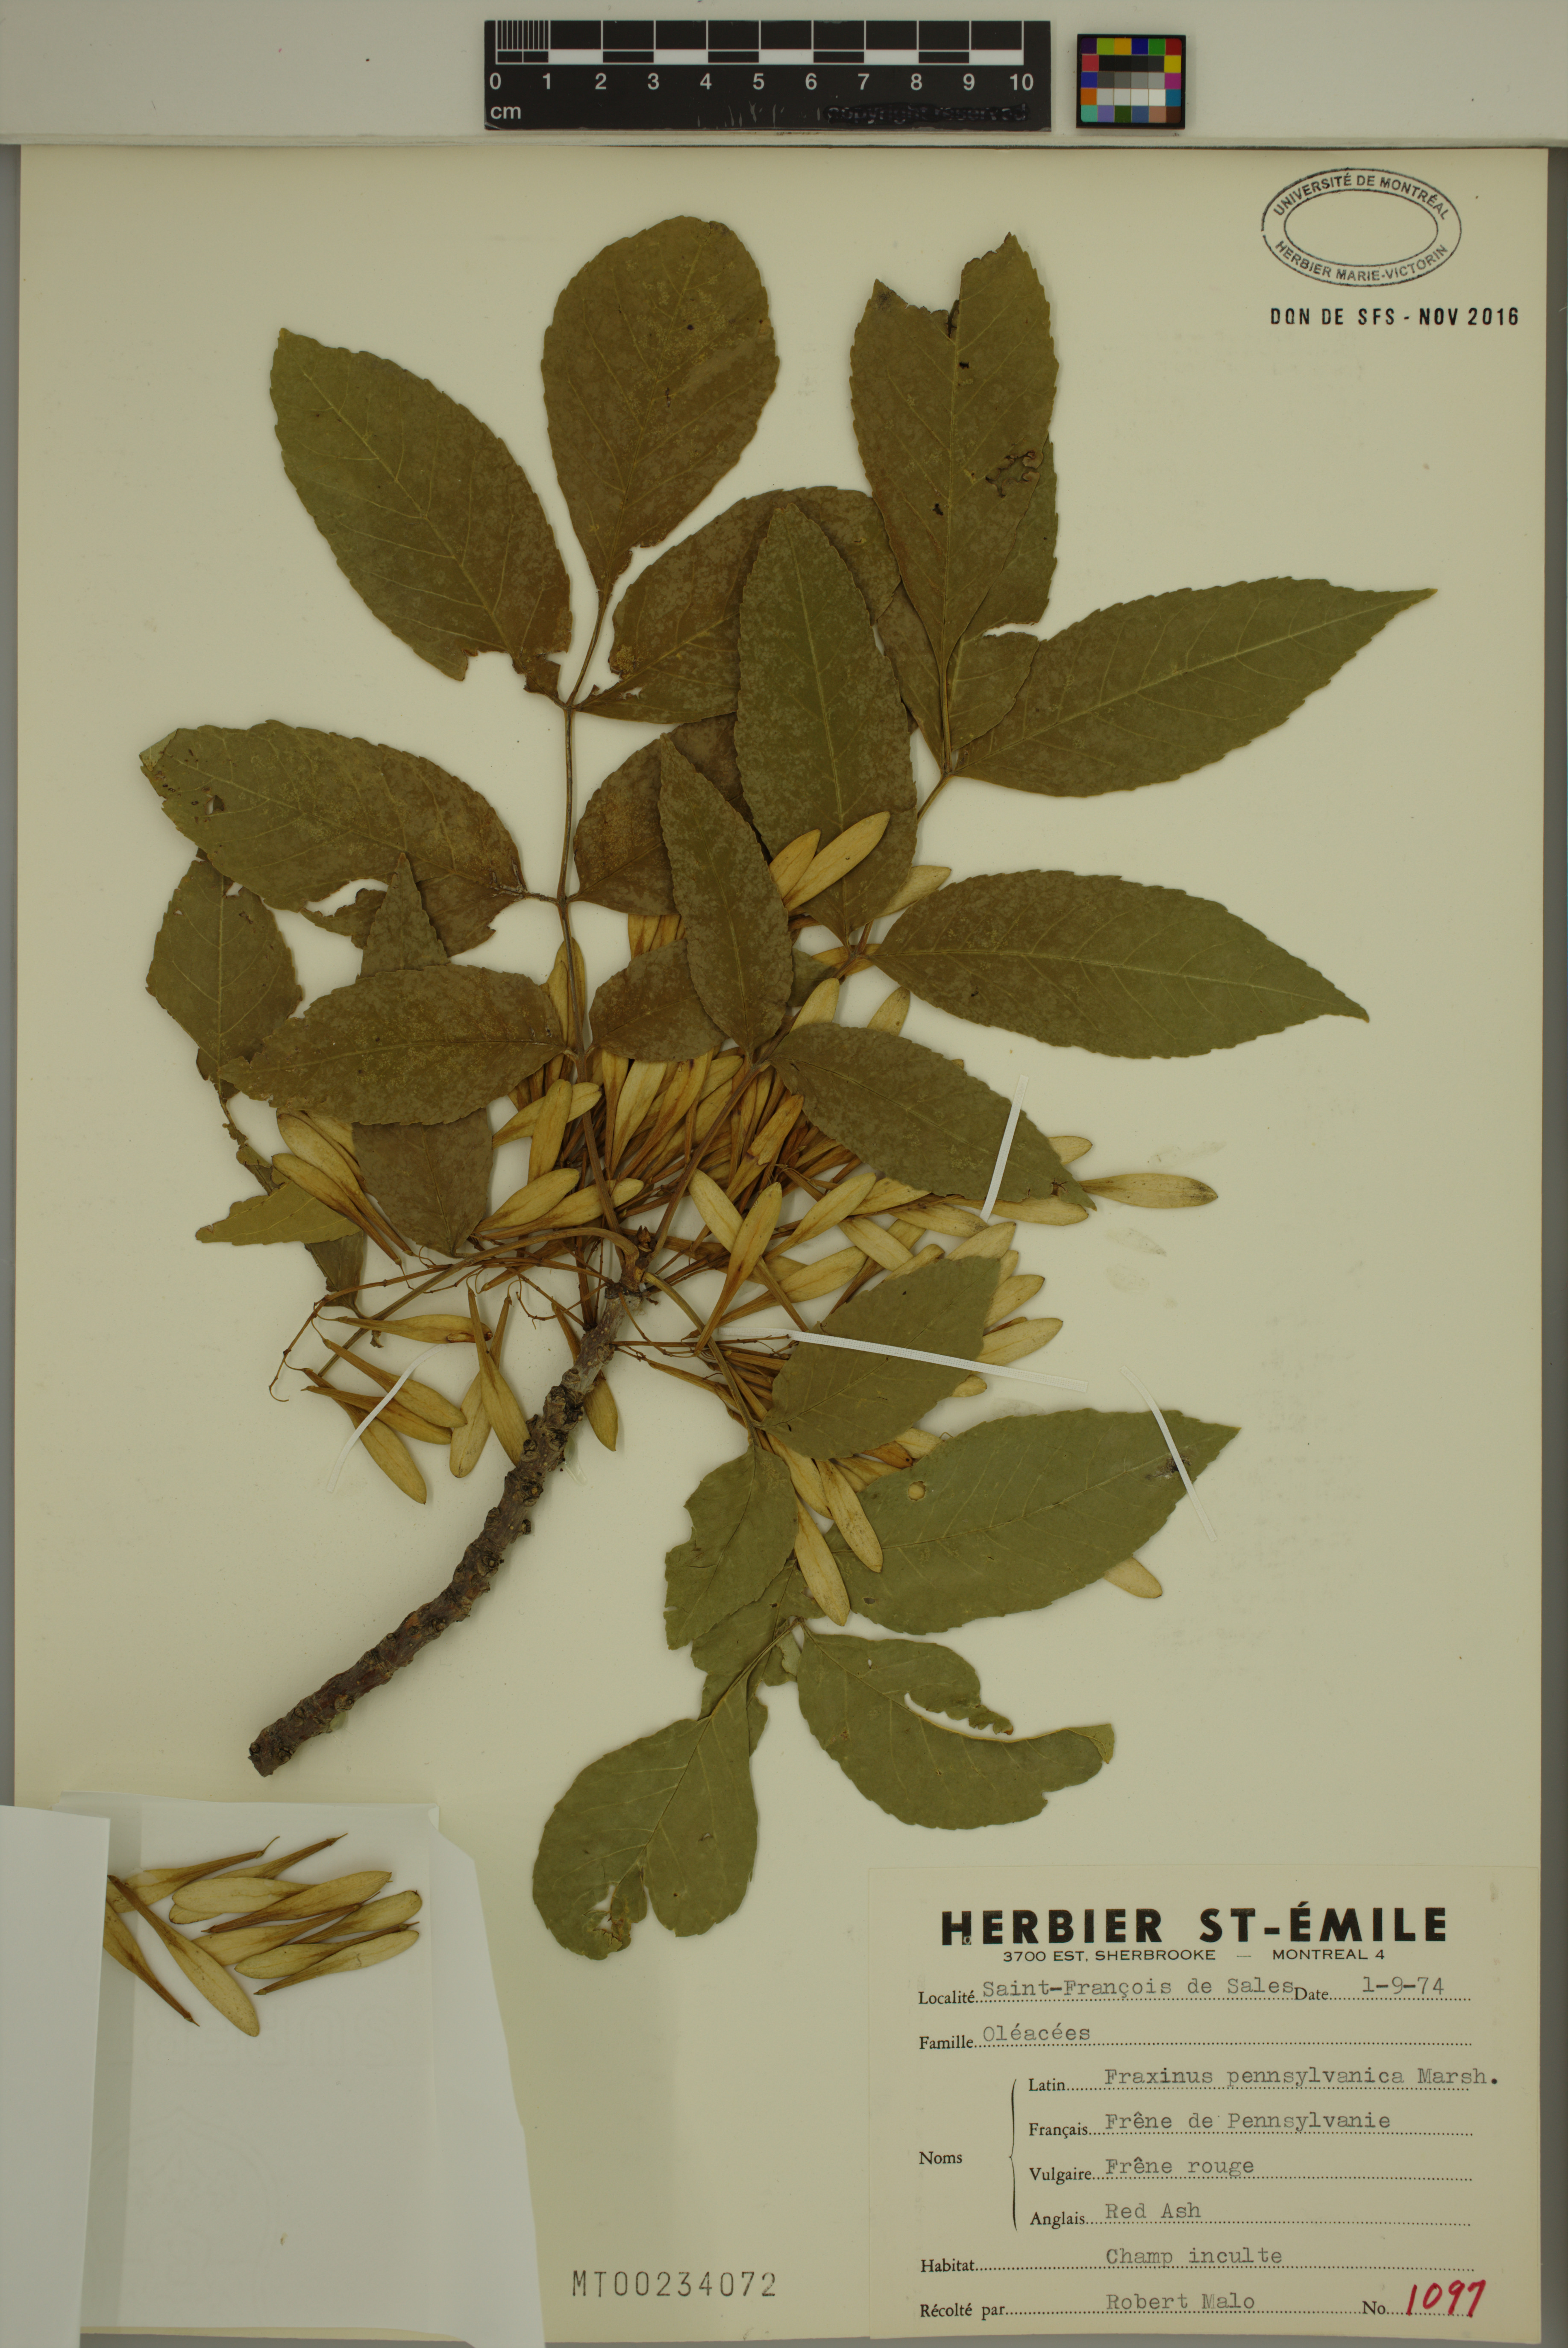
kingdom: Plantae
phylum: Tracheophyta
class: Magnoliopsida
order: Lamiales
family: Oleaceae
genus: Fraxinus
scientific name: Fraxinus pennsylvanica
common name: Green ash
